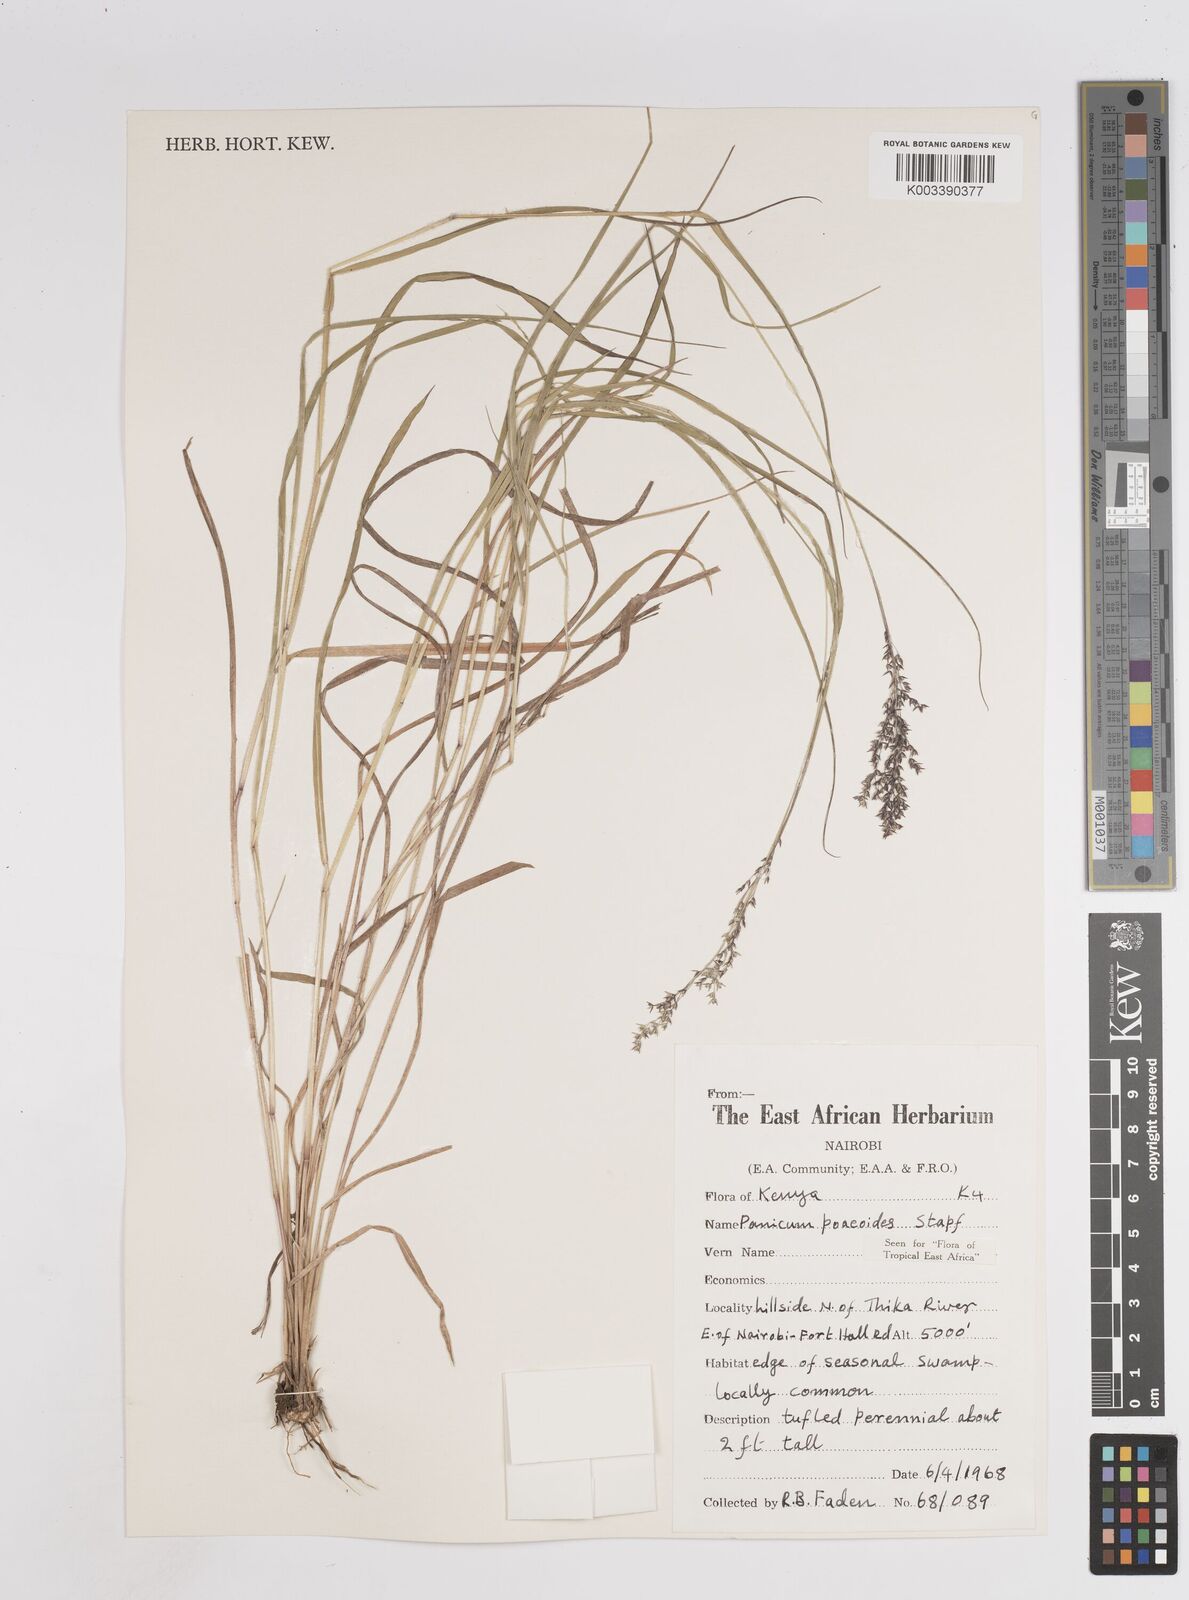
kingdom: Plantae
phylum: Tracheophyta
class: Liliopsida
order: Poales
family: Poaceae
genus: Panicum
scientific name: Panicum
